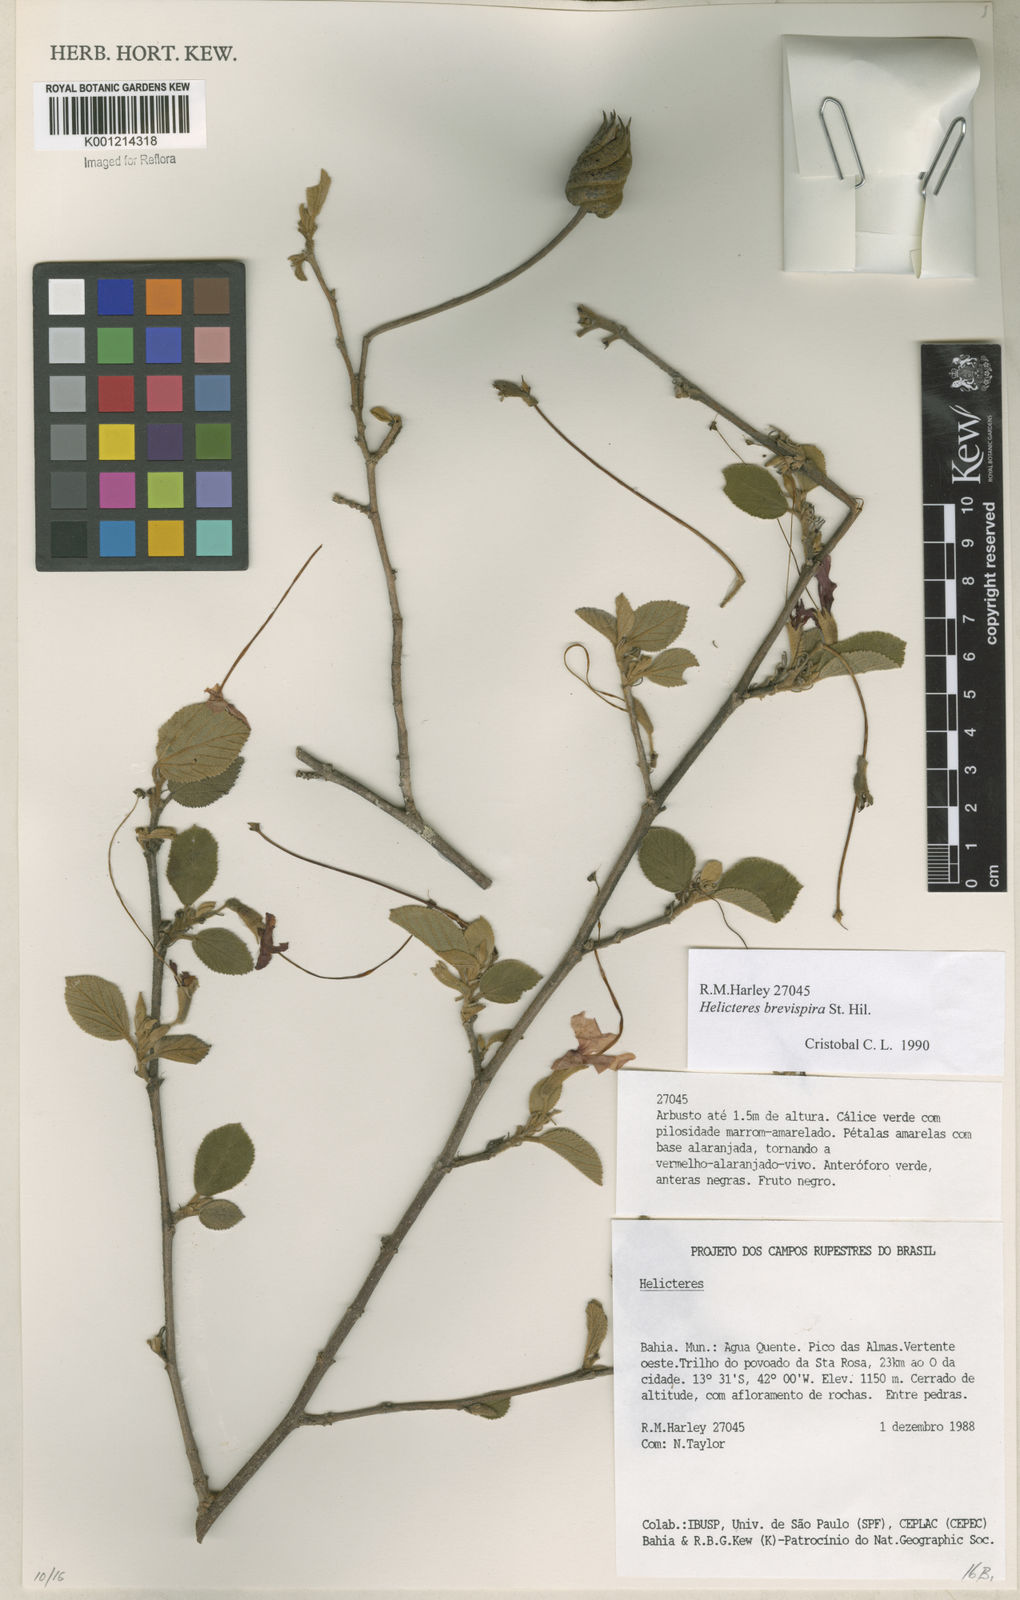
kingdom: Plantae
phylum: Tracheophyta
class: Magnoliopsida
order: Malvales
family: Malvaceae
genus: Helicteres
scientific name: Helicteres
